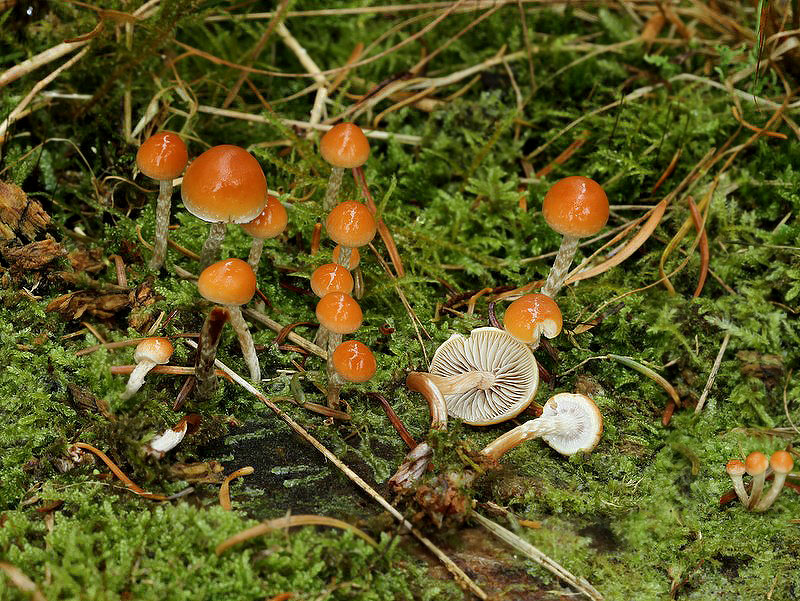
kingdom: Fungi
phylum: Basidiomycota
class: Agaricomycetes
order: Agaricales
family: Strophariaceae
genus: Hypholoma
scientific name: Hypholoma marginatum
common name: enlig svovlhat
